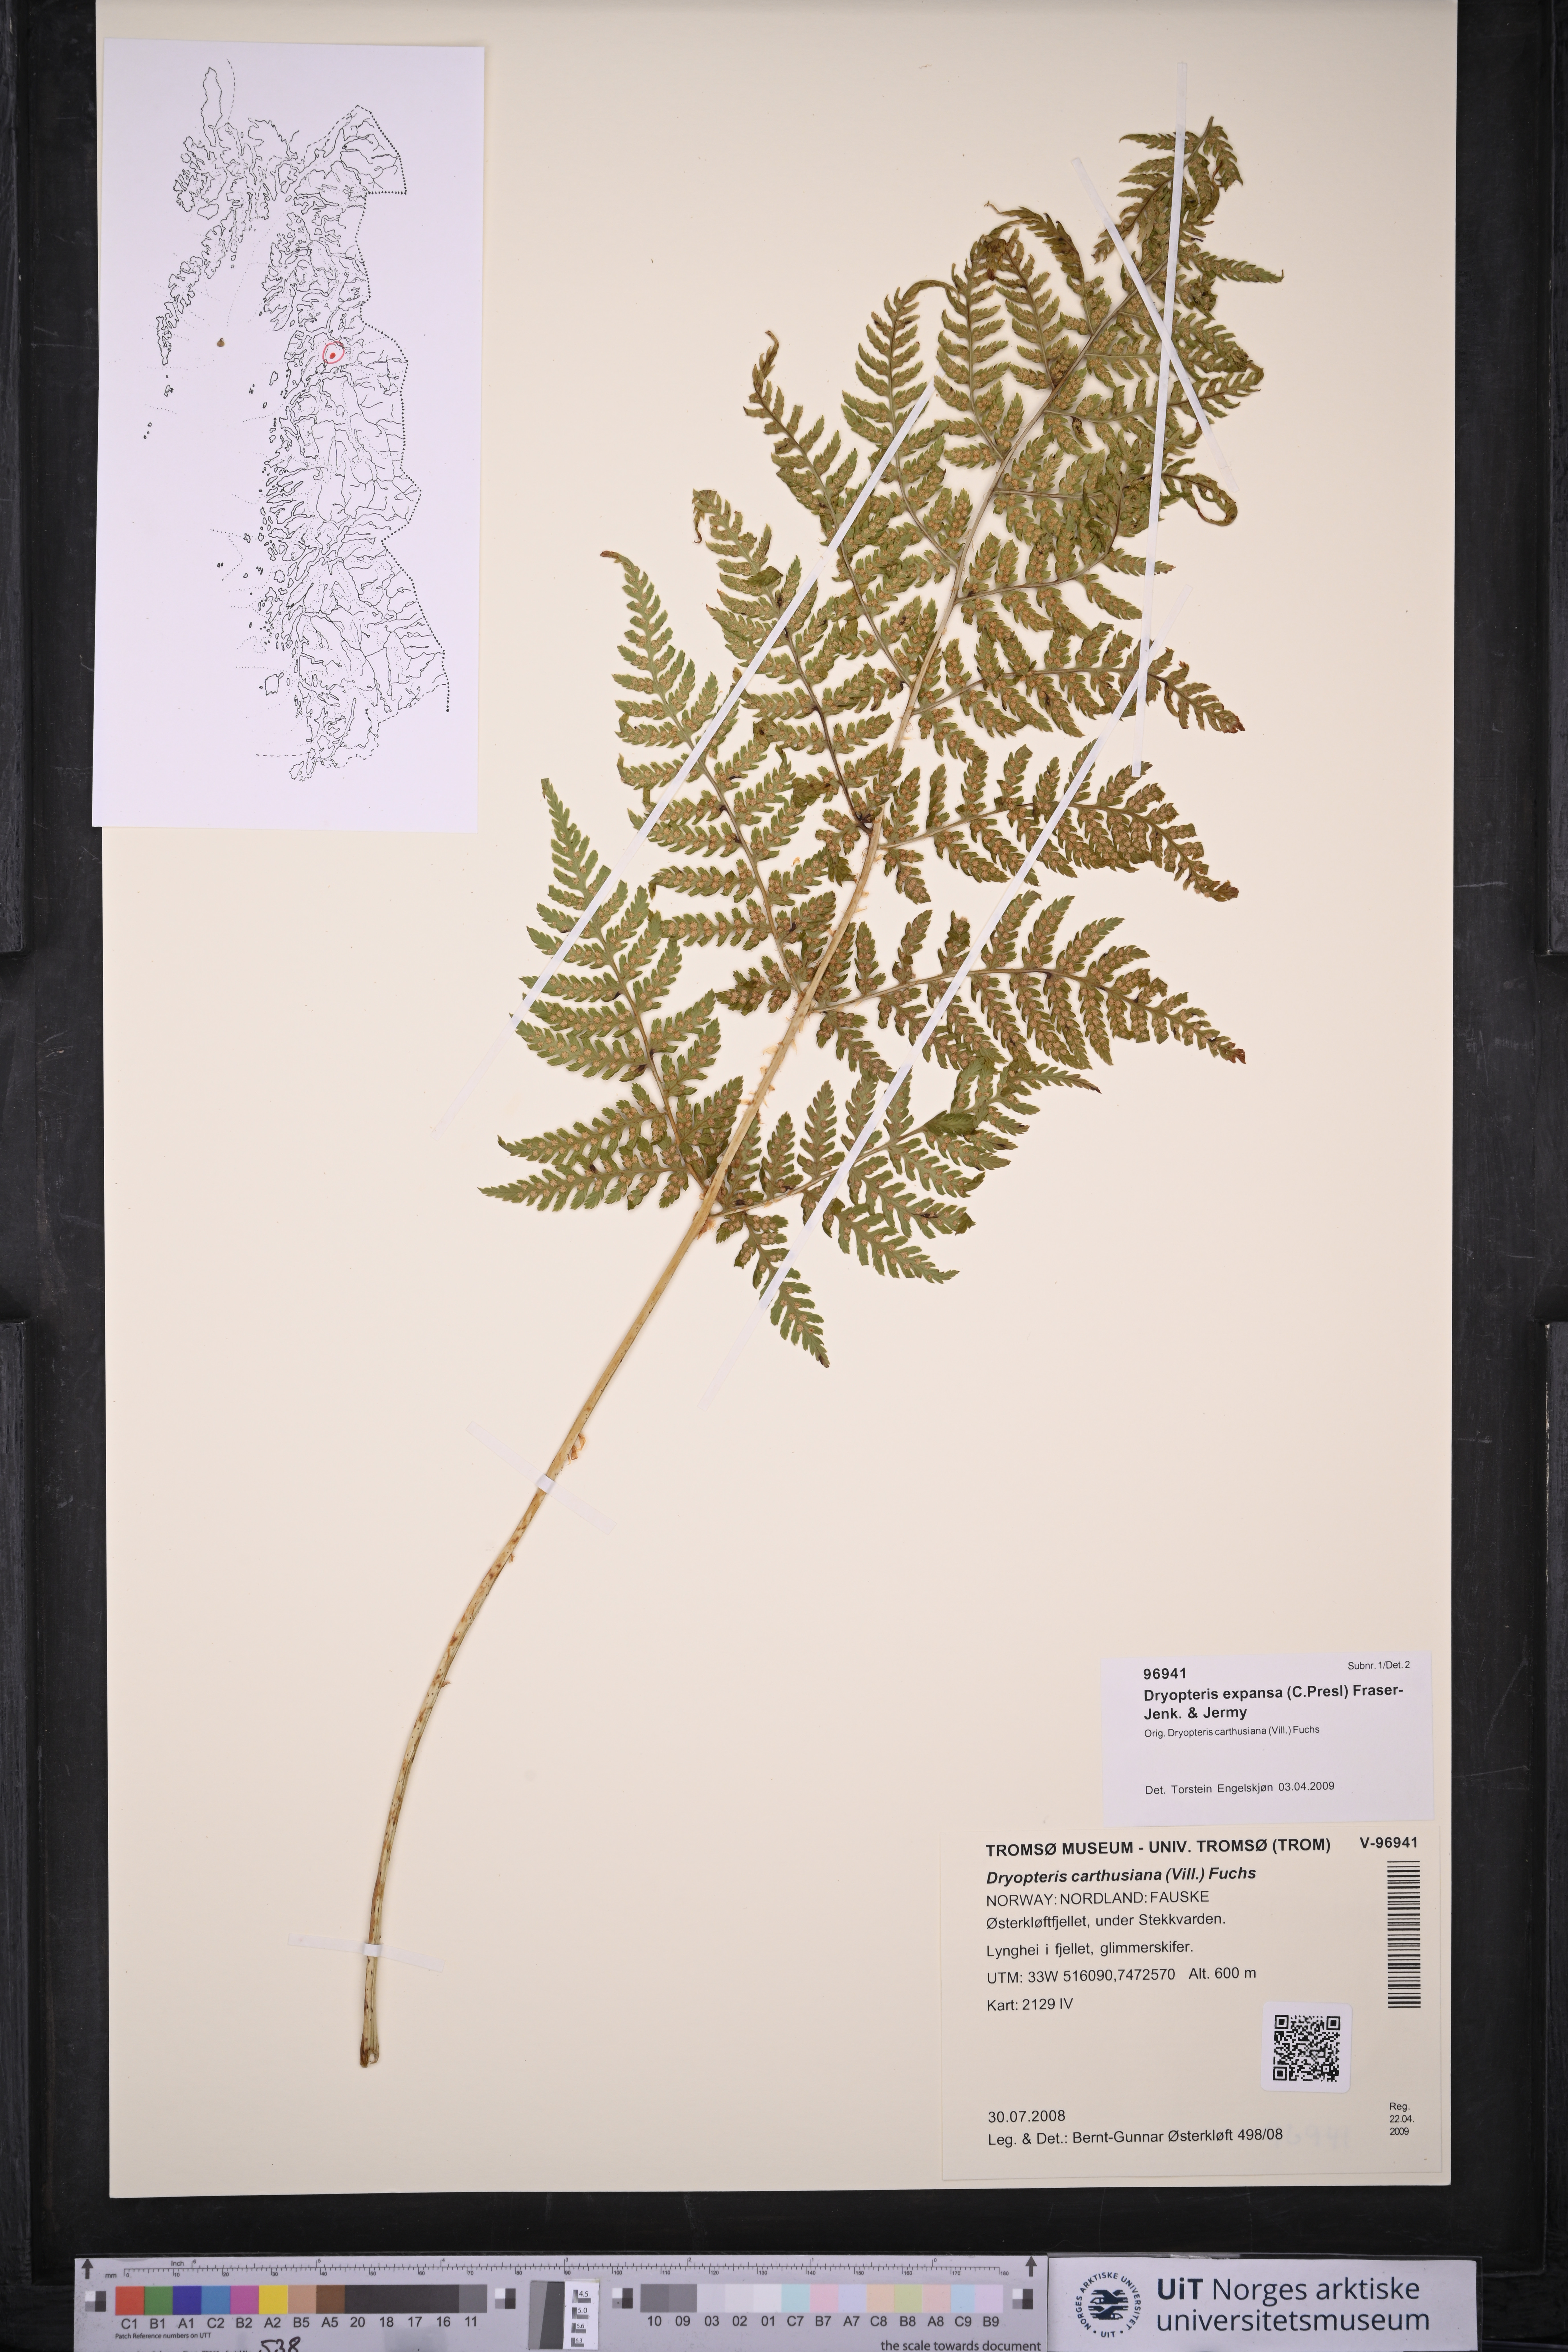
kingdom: Plantae
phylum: Tracheophyta
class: Polypodiopsida
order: Polypodiales
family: Dryopteridaceae
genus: Dryopteris
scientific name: Dryopteris expansa
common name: Northern buckler fern
